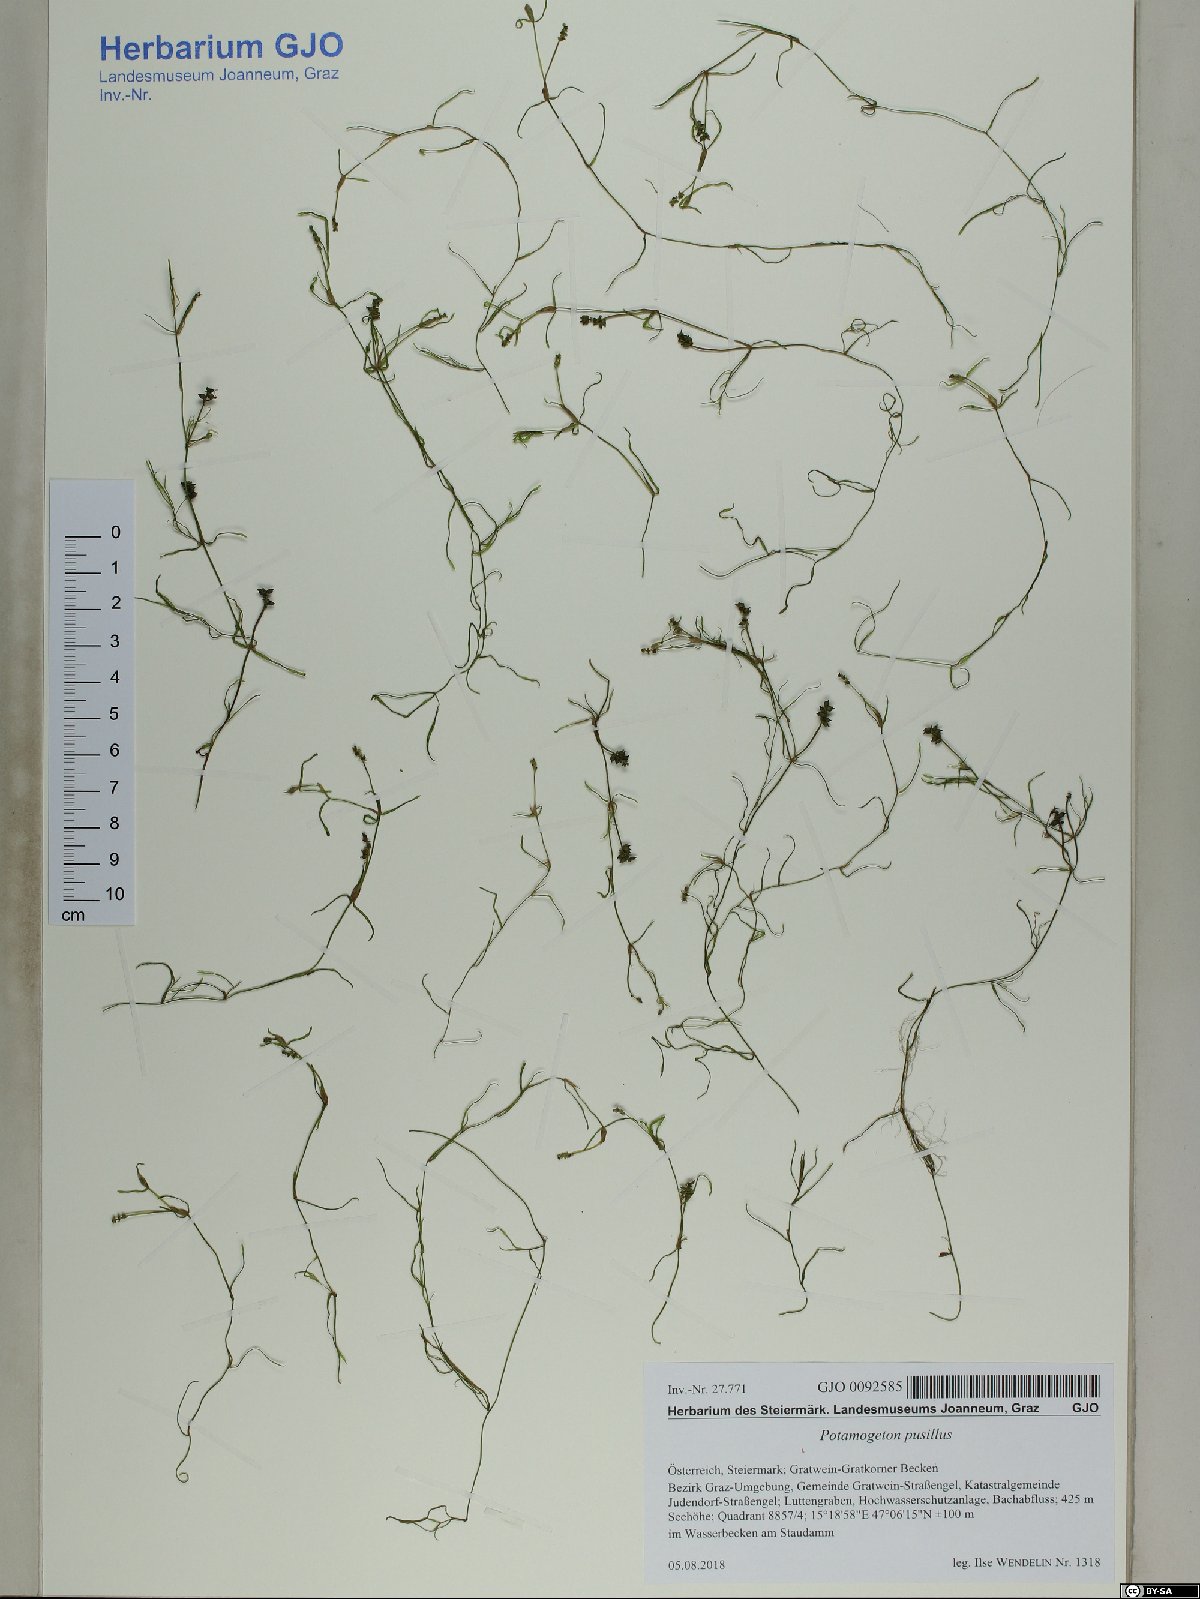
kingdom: Plantae
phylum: Tracheophyta
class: Liliopsida
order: Alismatales
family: Potamogetonaceae
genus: Potamogeton
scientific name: Potamogeton pusillus
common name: Lesser pondweed
